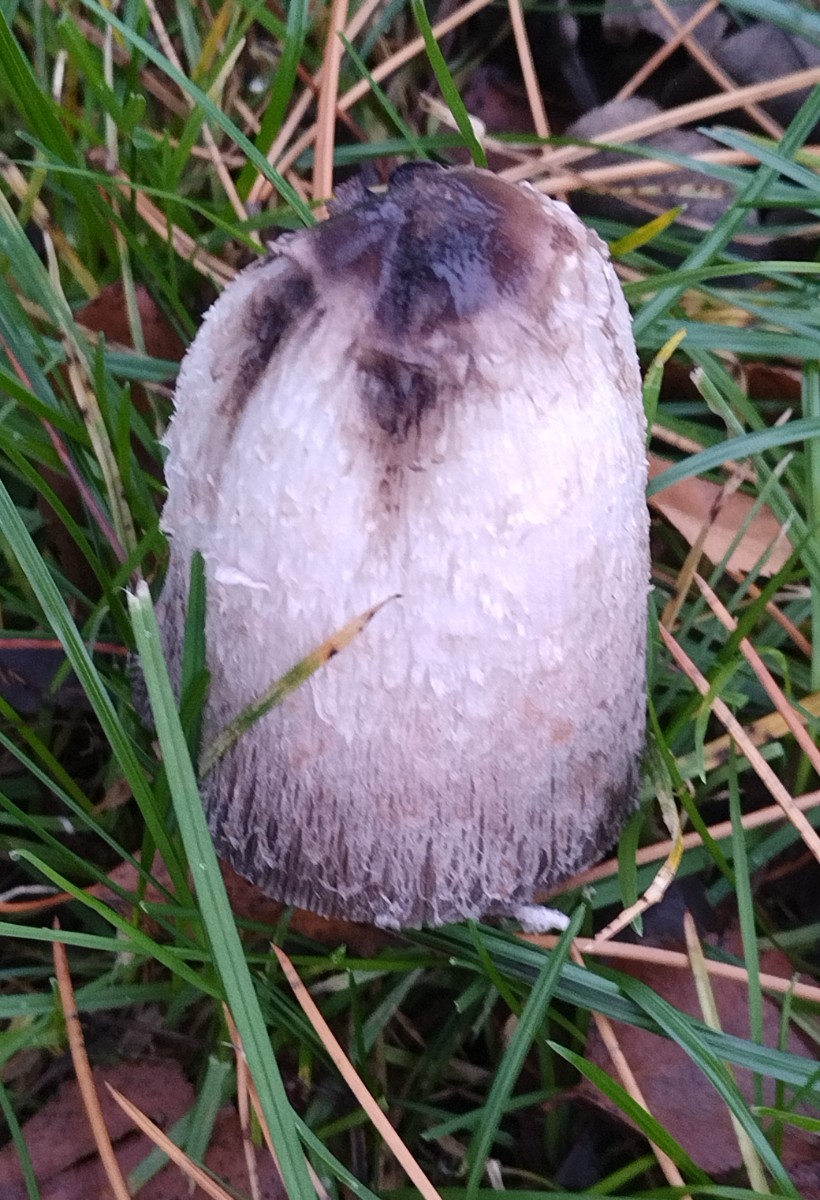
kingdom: Fungi
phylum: Basidiomycota
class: Agaricomycetes
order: Agaricales
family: Agaricaceae
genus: Coprinus
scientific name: Coprinus comatus
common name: stor parykhat
